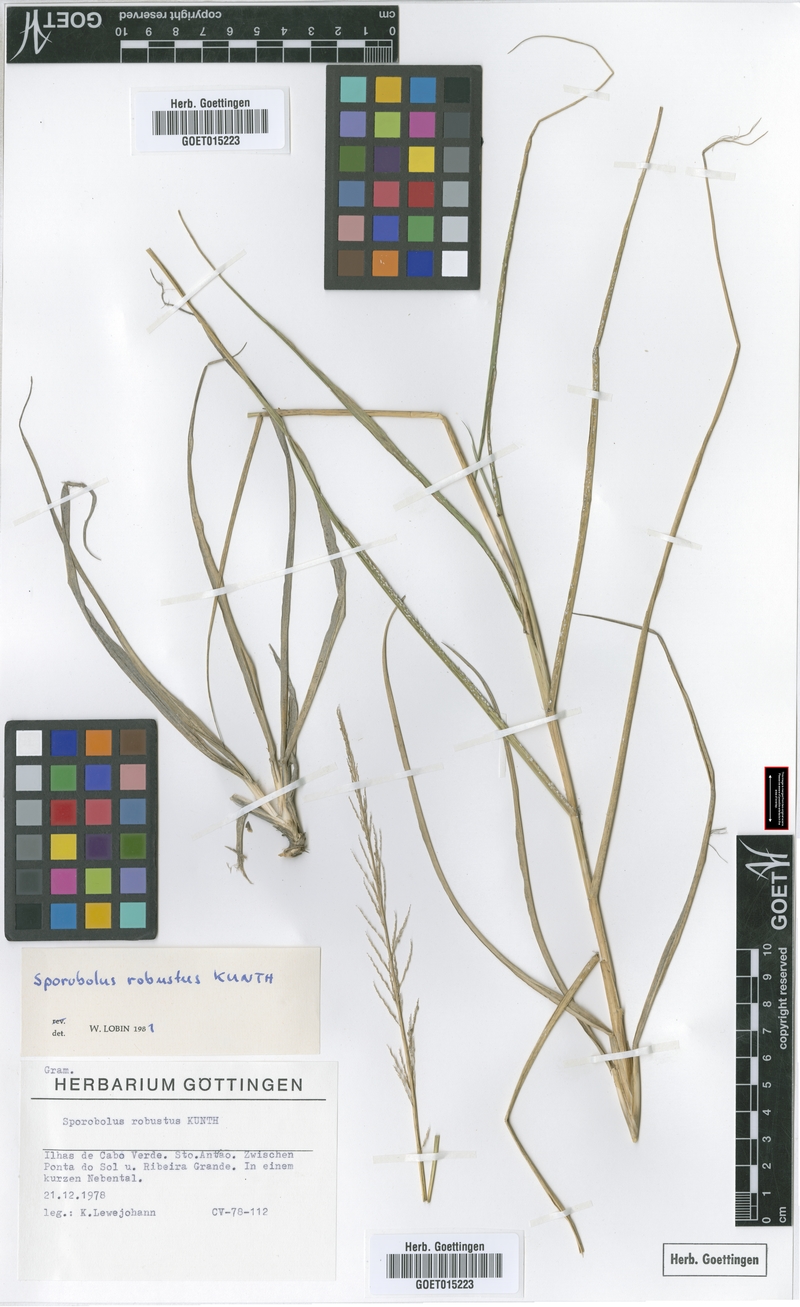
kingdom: Plantae
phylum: Tracheophyta
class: Liliopsida
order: Poales
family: Poaceae
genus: Sporobolus
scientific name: Sporobolus robustus
